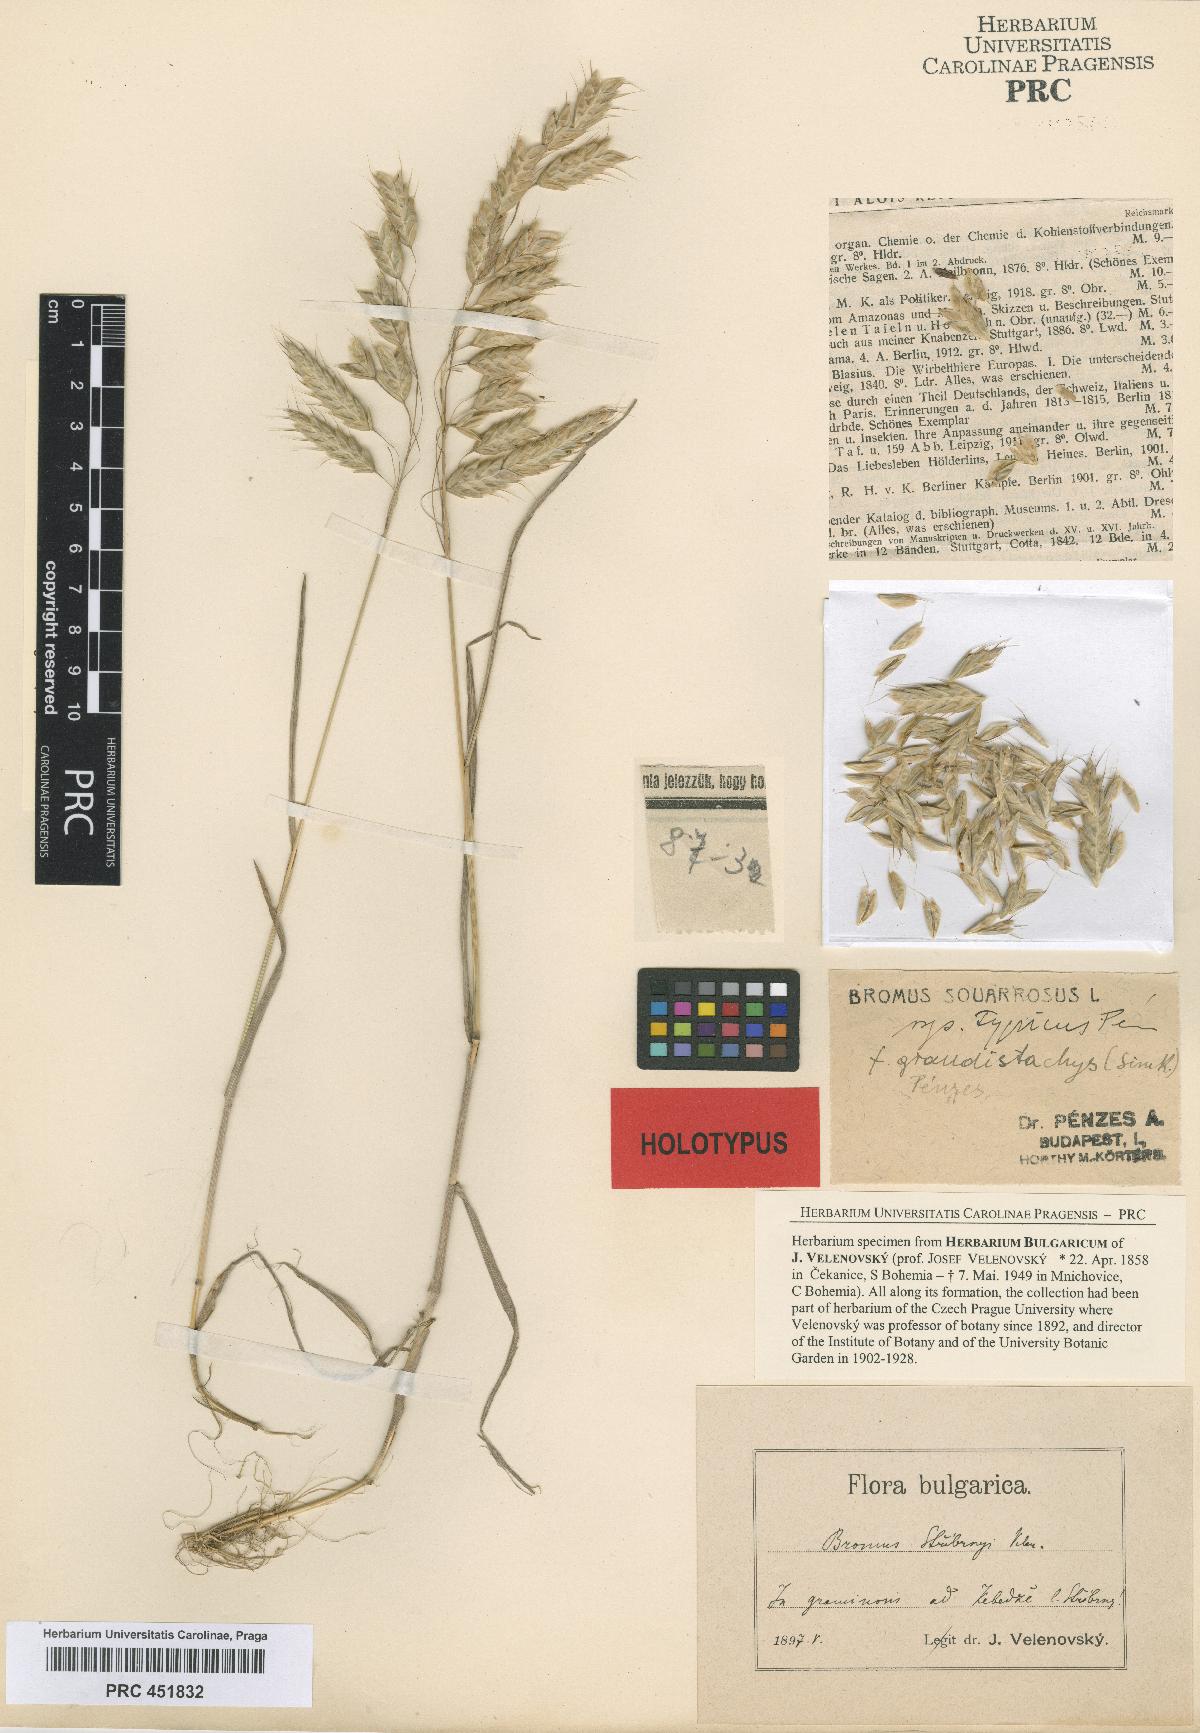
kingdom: Plantae
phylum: Tracheophyta
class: Liliopsida
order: Poales
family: Poaceae
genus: Bromus
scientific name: Bromus squarrosus
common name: Corn brome
